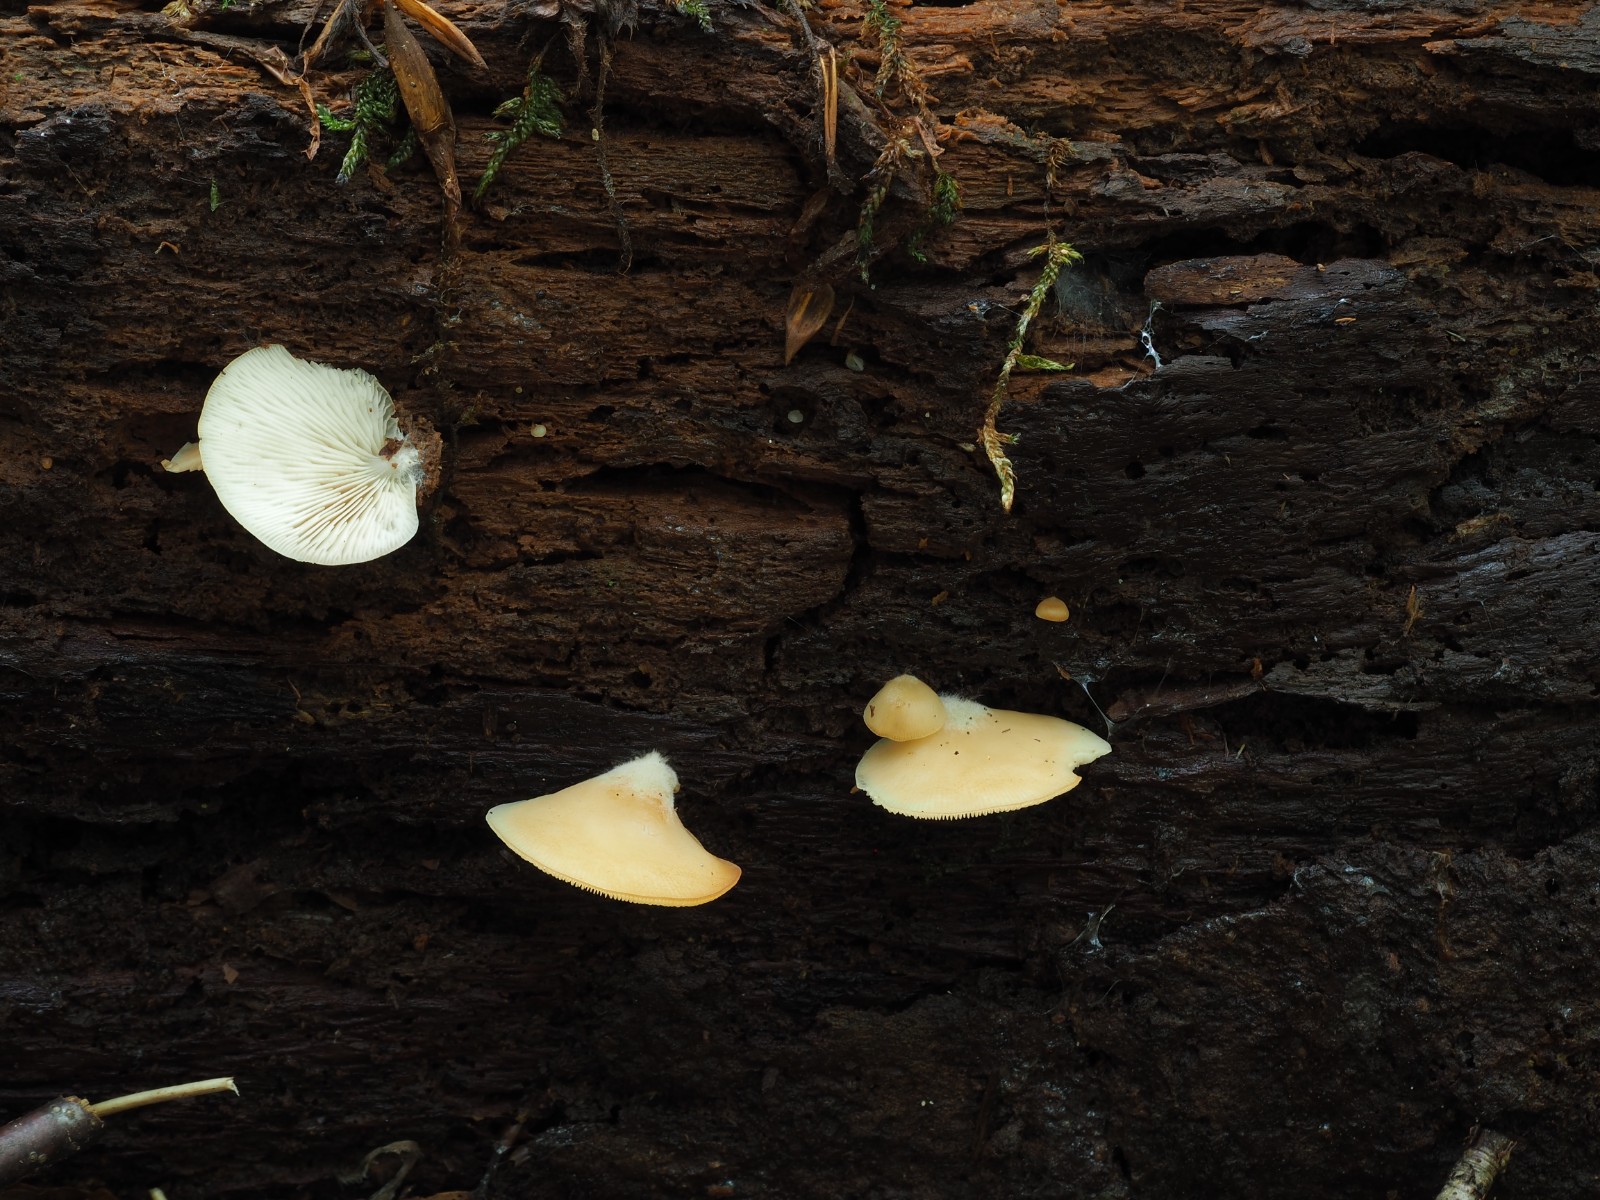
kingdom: Fungi
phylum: Basidiomycota
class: Agaricomycetes
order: Agaricales
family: Crepidotaceae
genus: Crepidotus
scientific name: Crepidotus applanatus
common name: tvefarvet muslingesvamp
